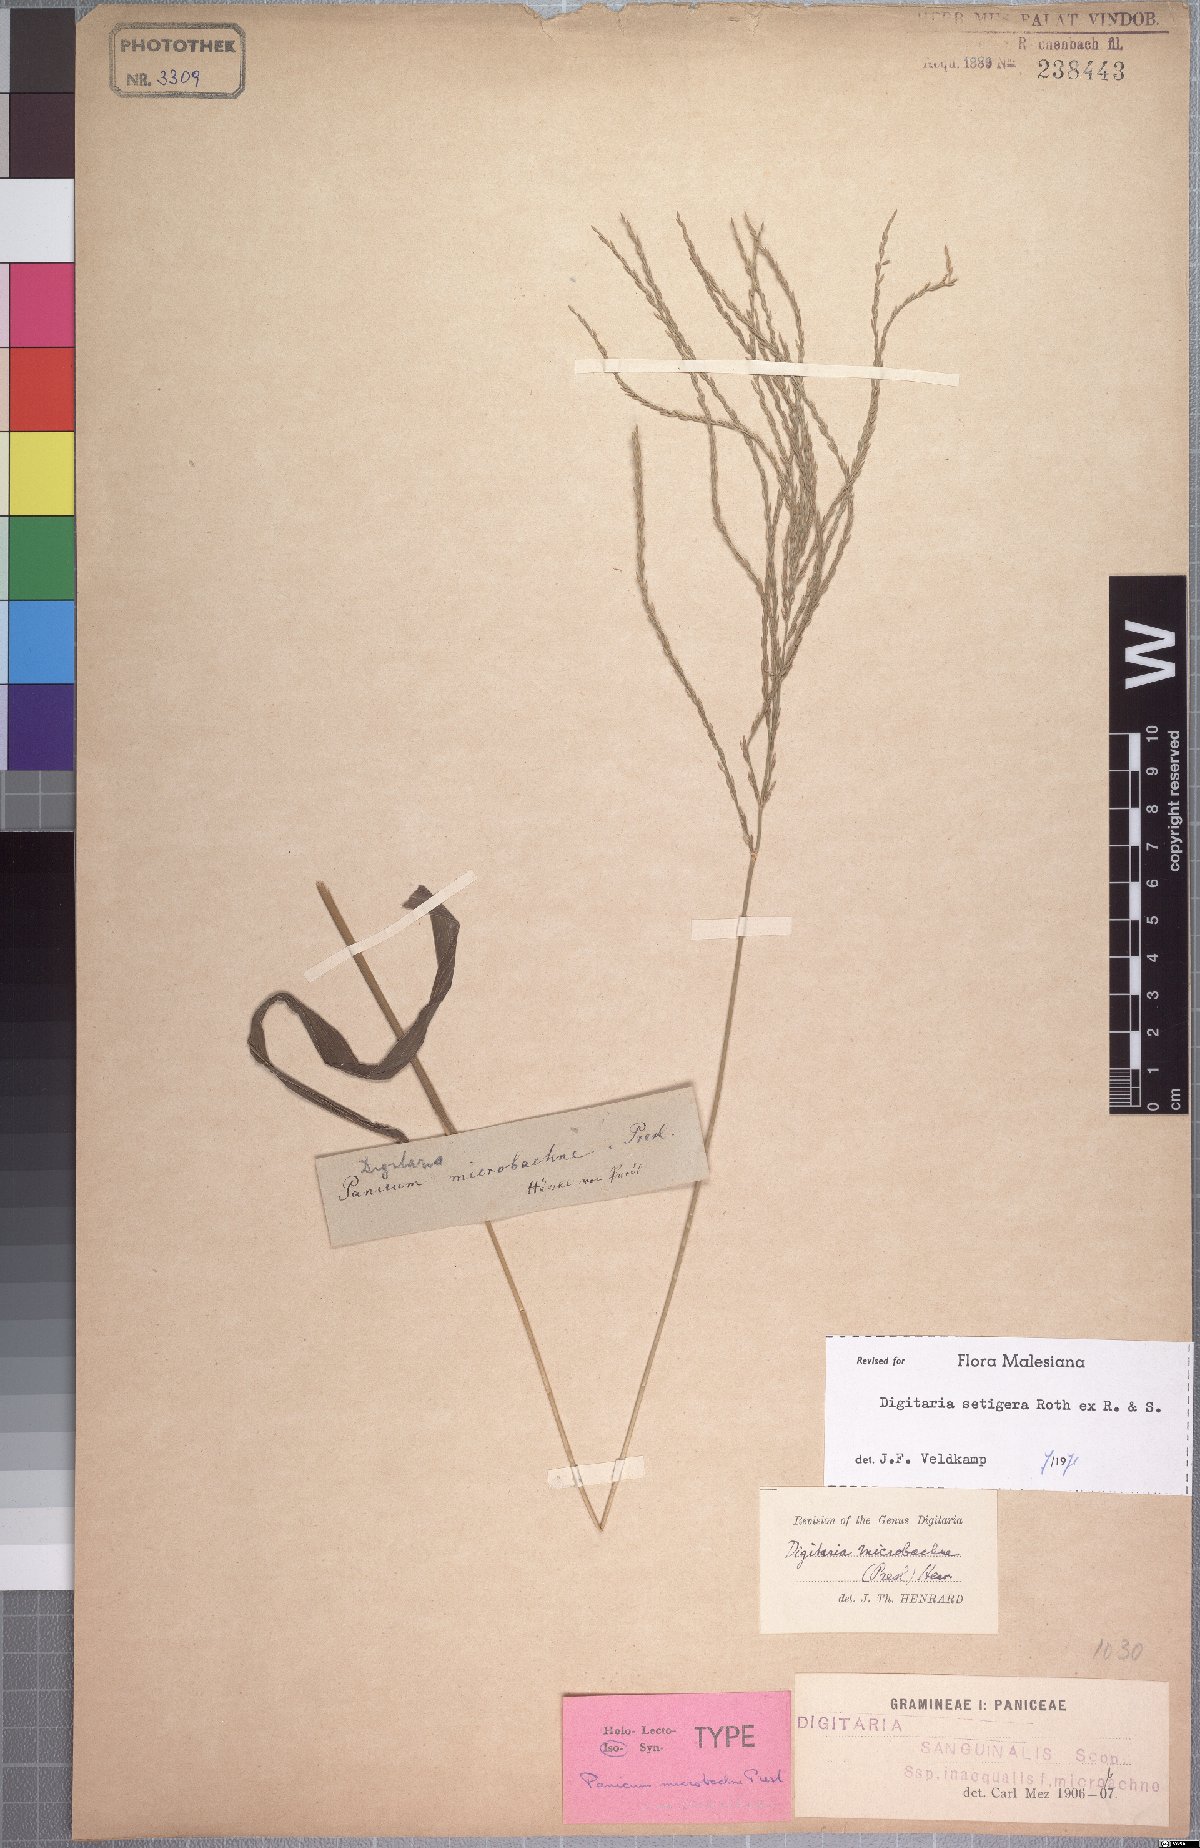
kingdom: Plantae
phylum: Tracheophyta
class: Liliopsida
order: Poales
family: Poaceae
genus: Digitaria
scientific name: Digitaria setigera
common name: East indian crabgrass
